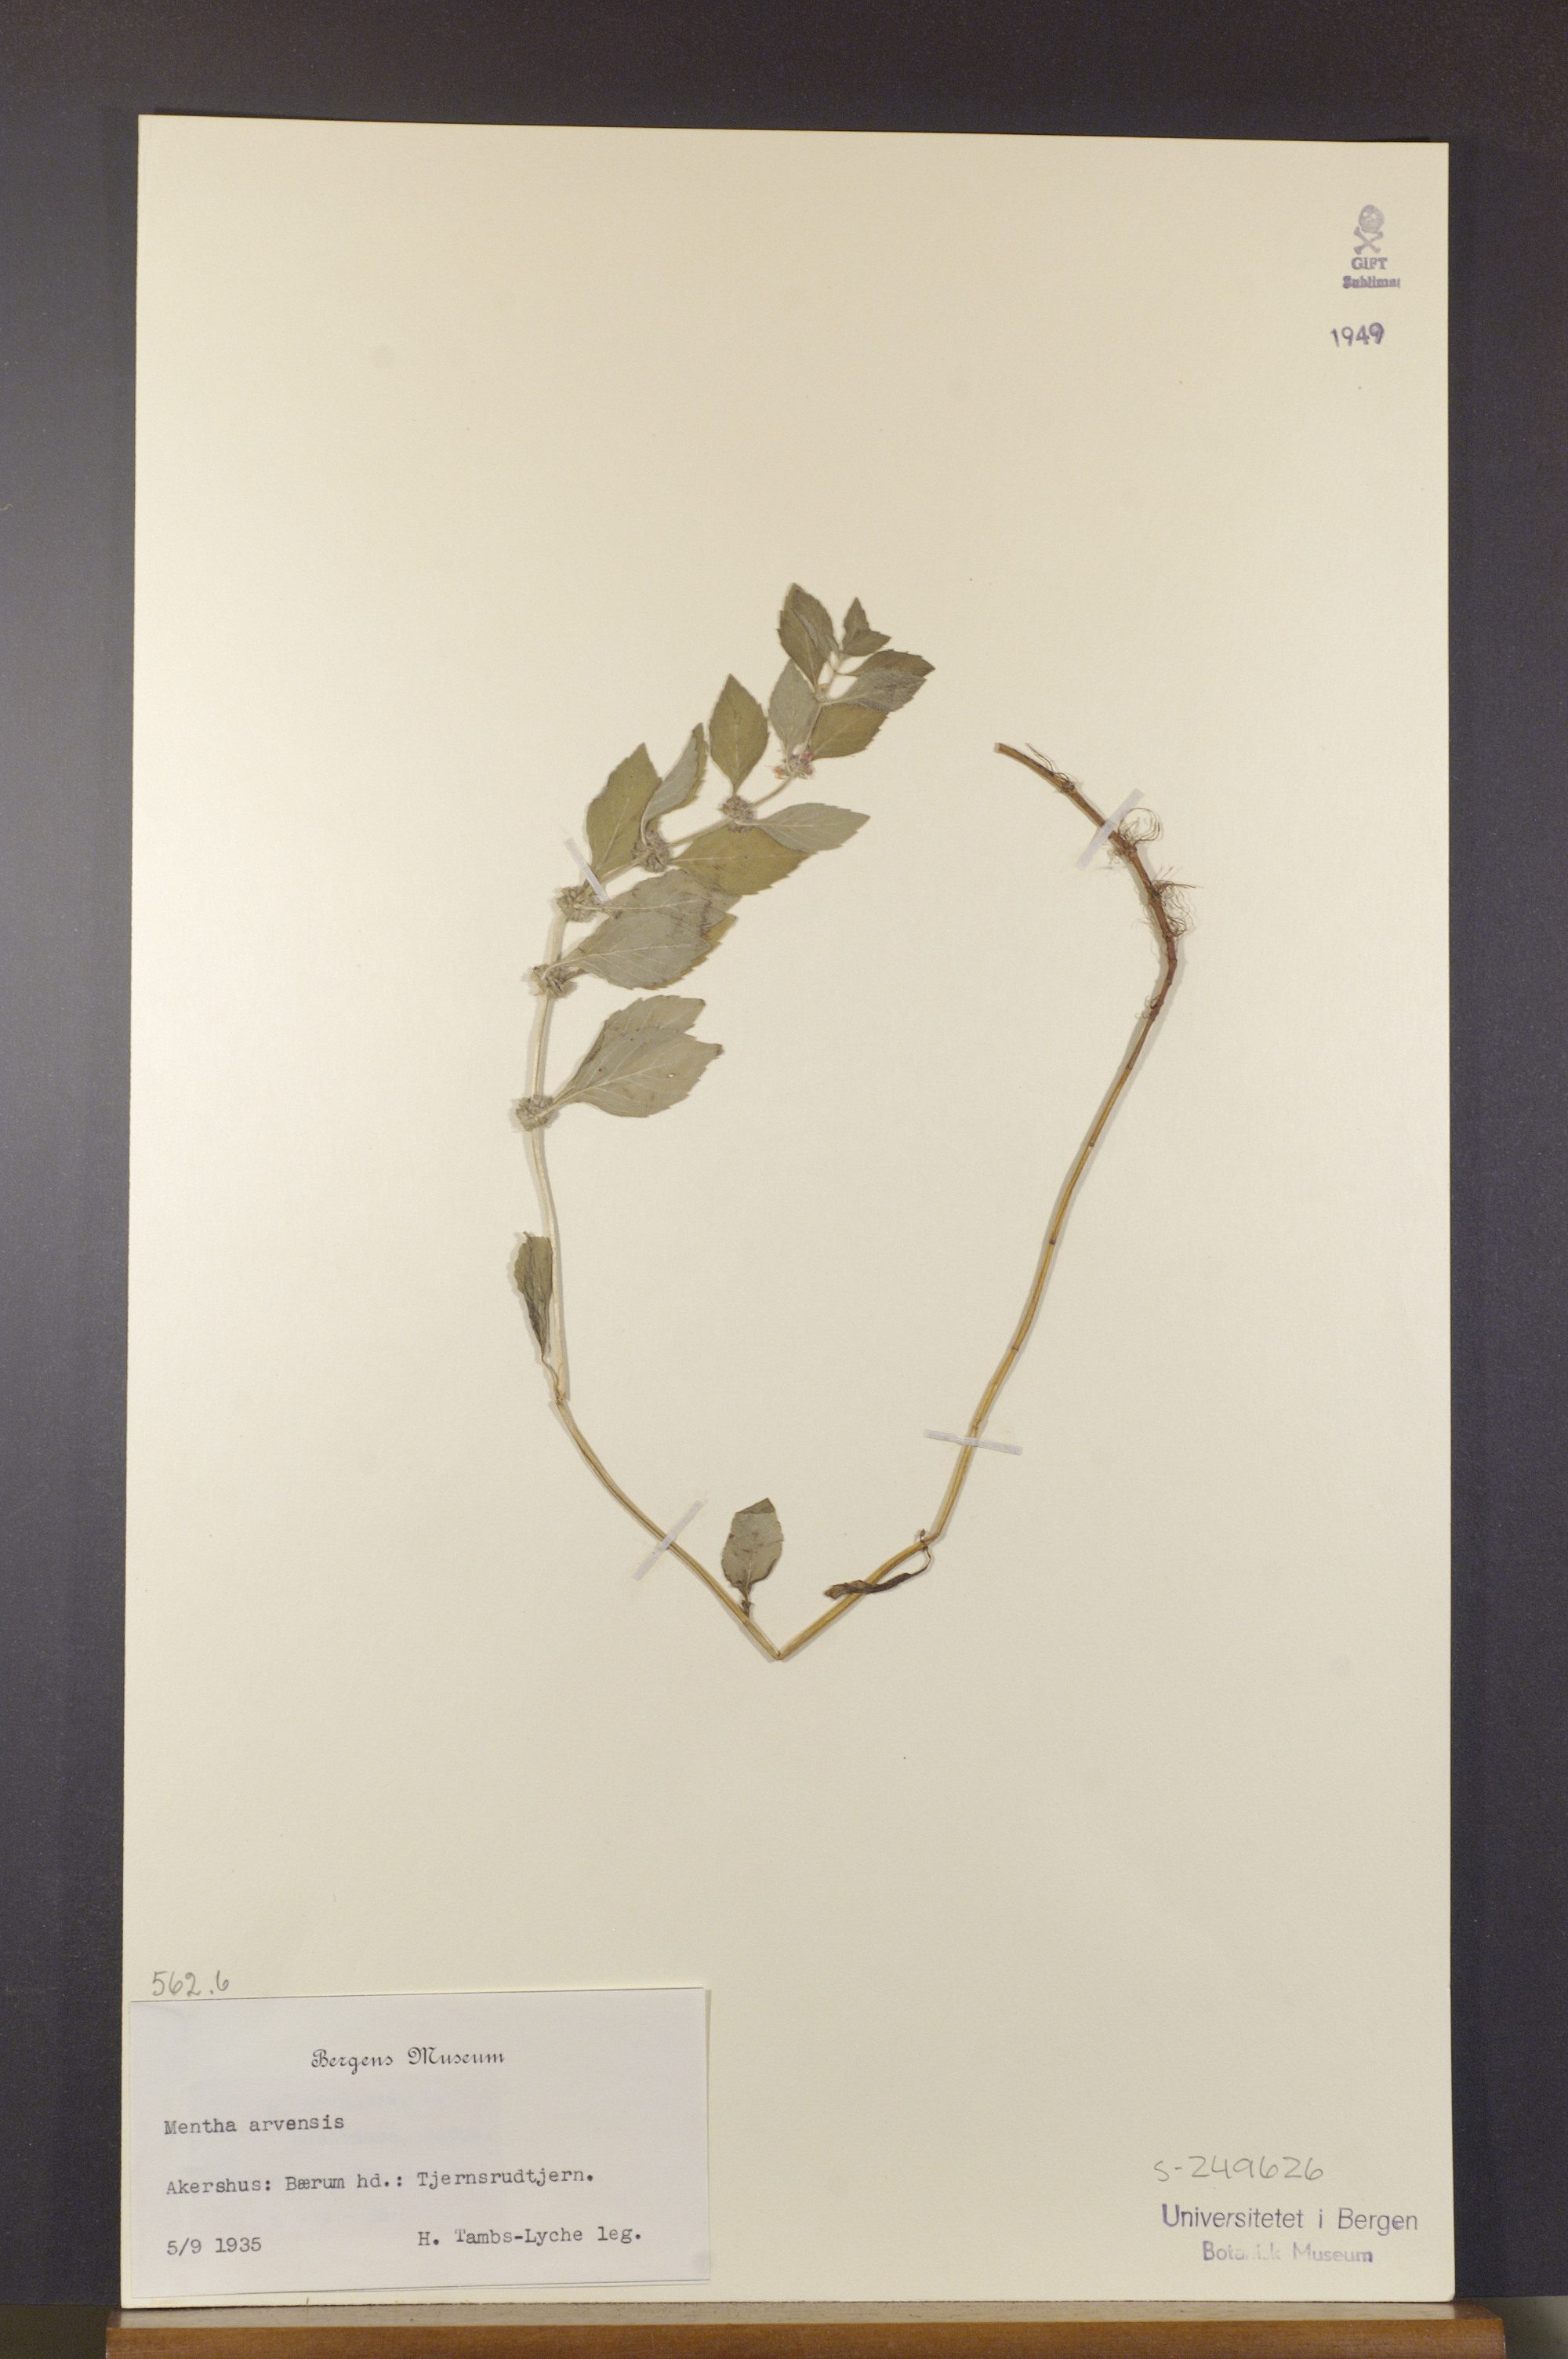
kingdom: Plantae
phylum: Tracheophyta
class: Magnoliopsida
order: Lamiales
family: Lamiaceae
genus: Mentha
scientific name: Mentha arvensis
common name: Corn mint
